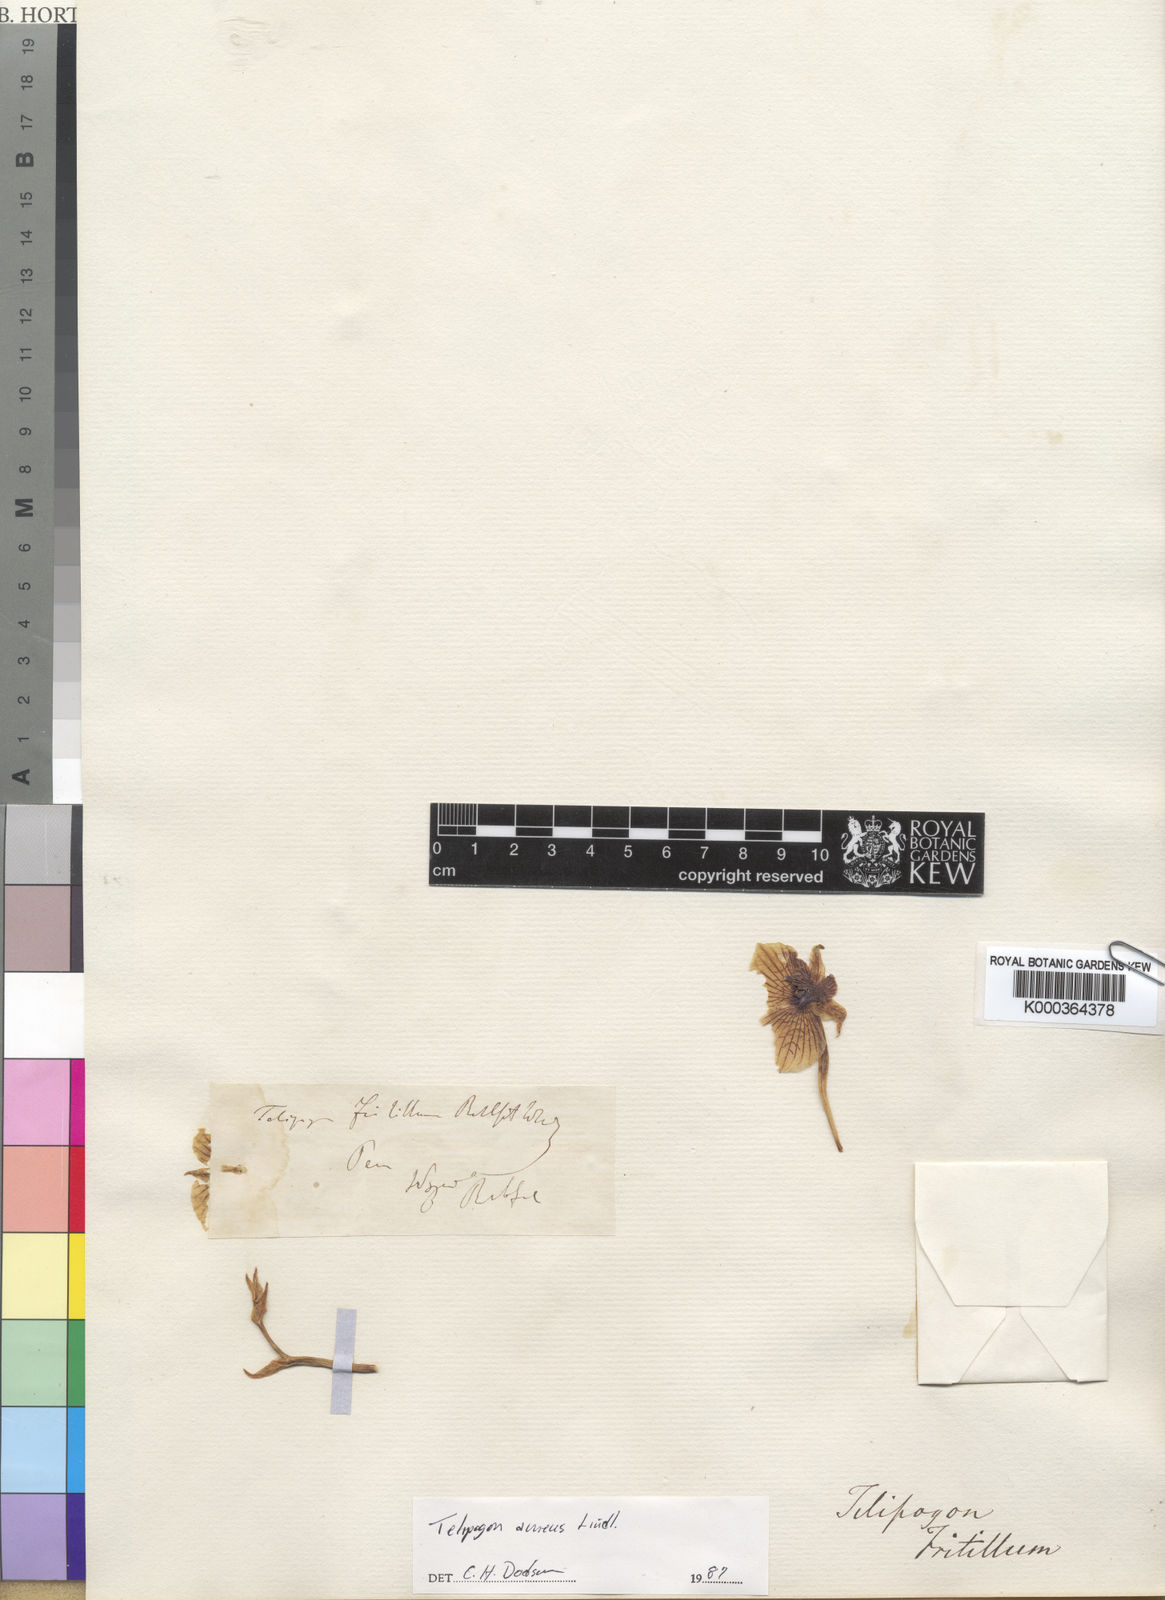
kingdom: Plantae
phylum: Tracheophyta
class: Liliopsida
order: Asparagales
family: Orchidaceae
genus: Telipogon
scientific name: Telipogon aureus
